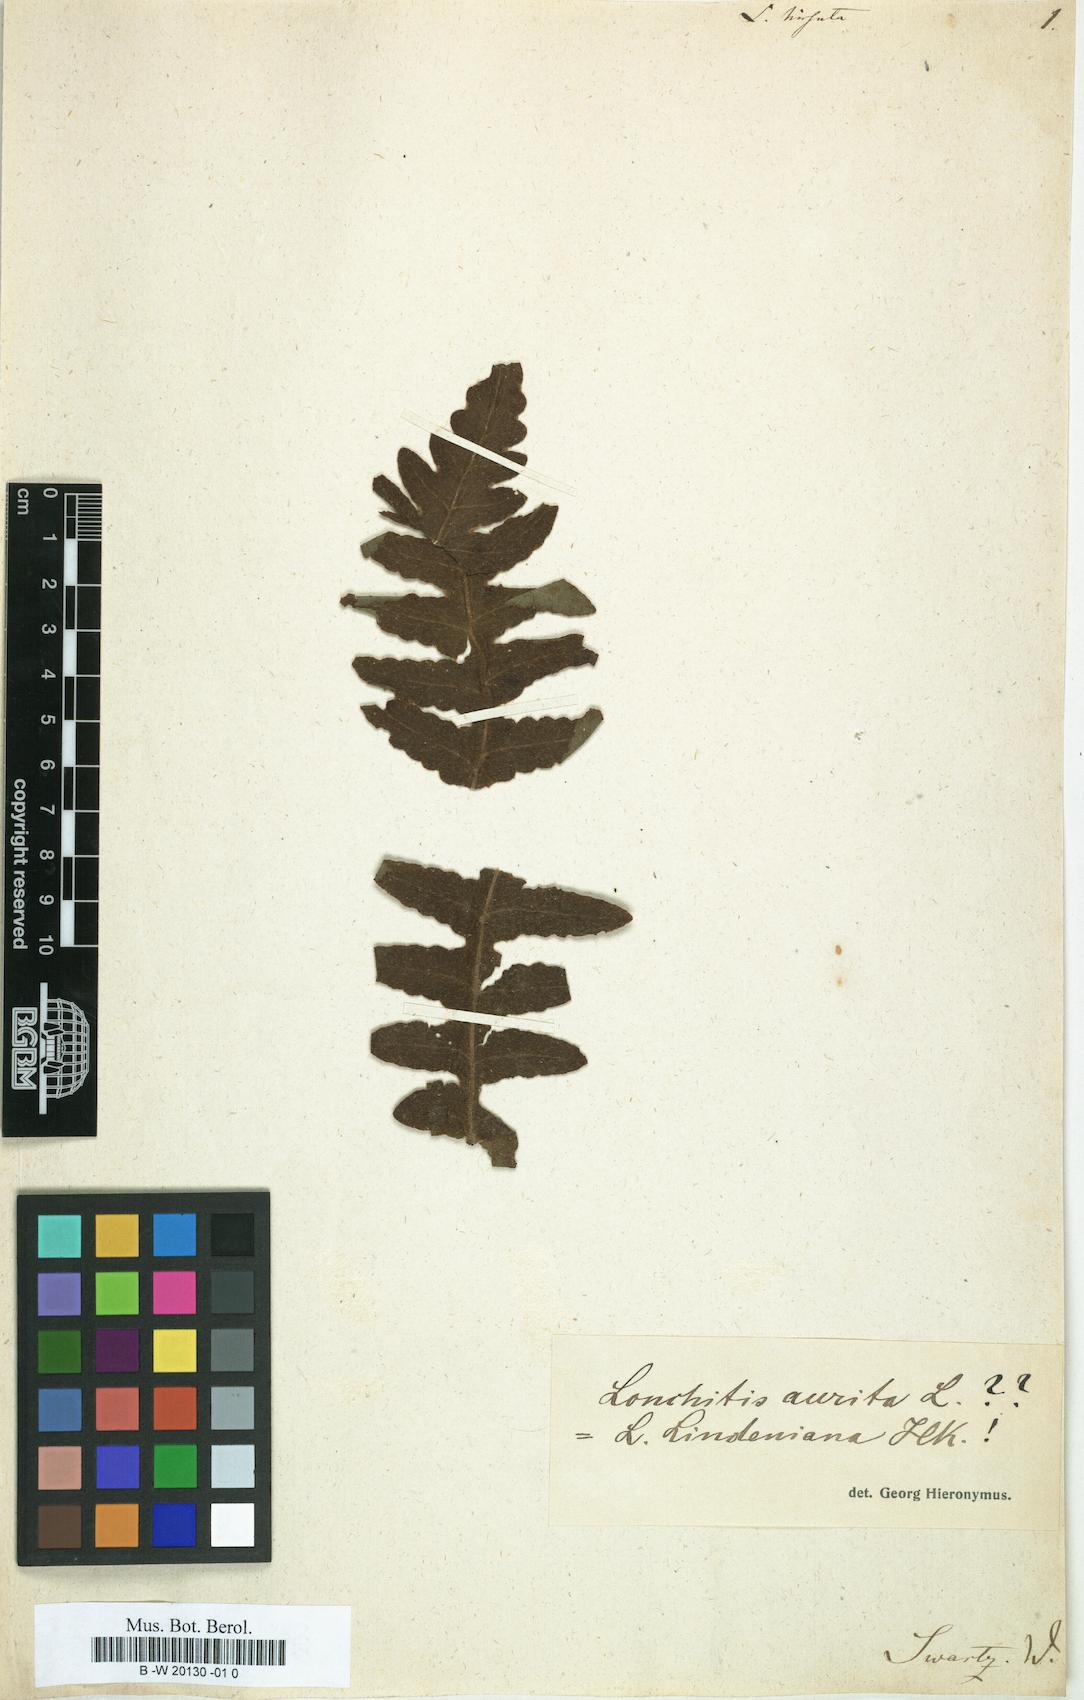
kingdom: Plantae
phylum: Tracheophyta
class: Polypodiopsida
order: Polypodiales
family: Lonchitidaceae
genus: Lonchitis
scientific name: Lonchitis hirsuta
